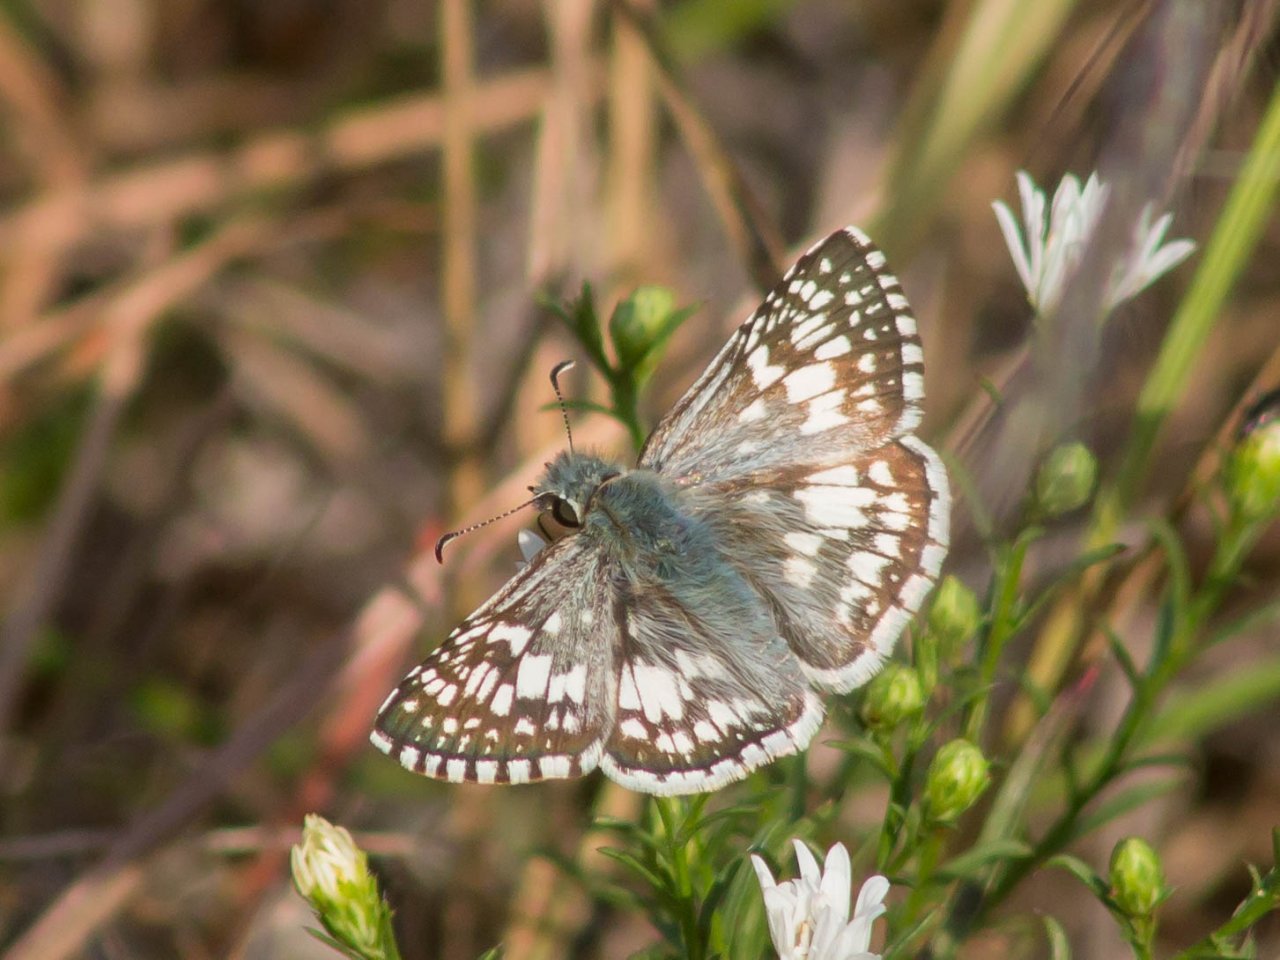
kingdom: Animalia
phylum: Arthropoda
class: Insecta
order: Lepidoptera
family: Hesperiidae
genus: Pyrgus
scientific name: Pyrgus communis
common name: Common Checkered-Skipper
